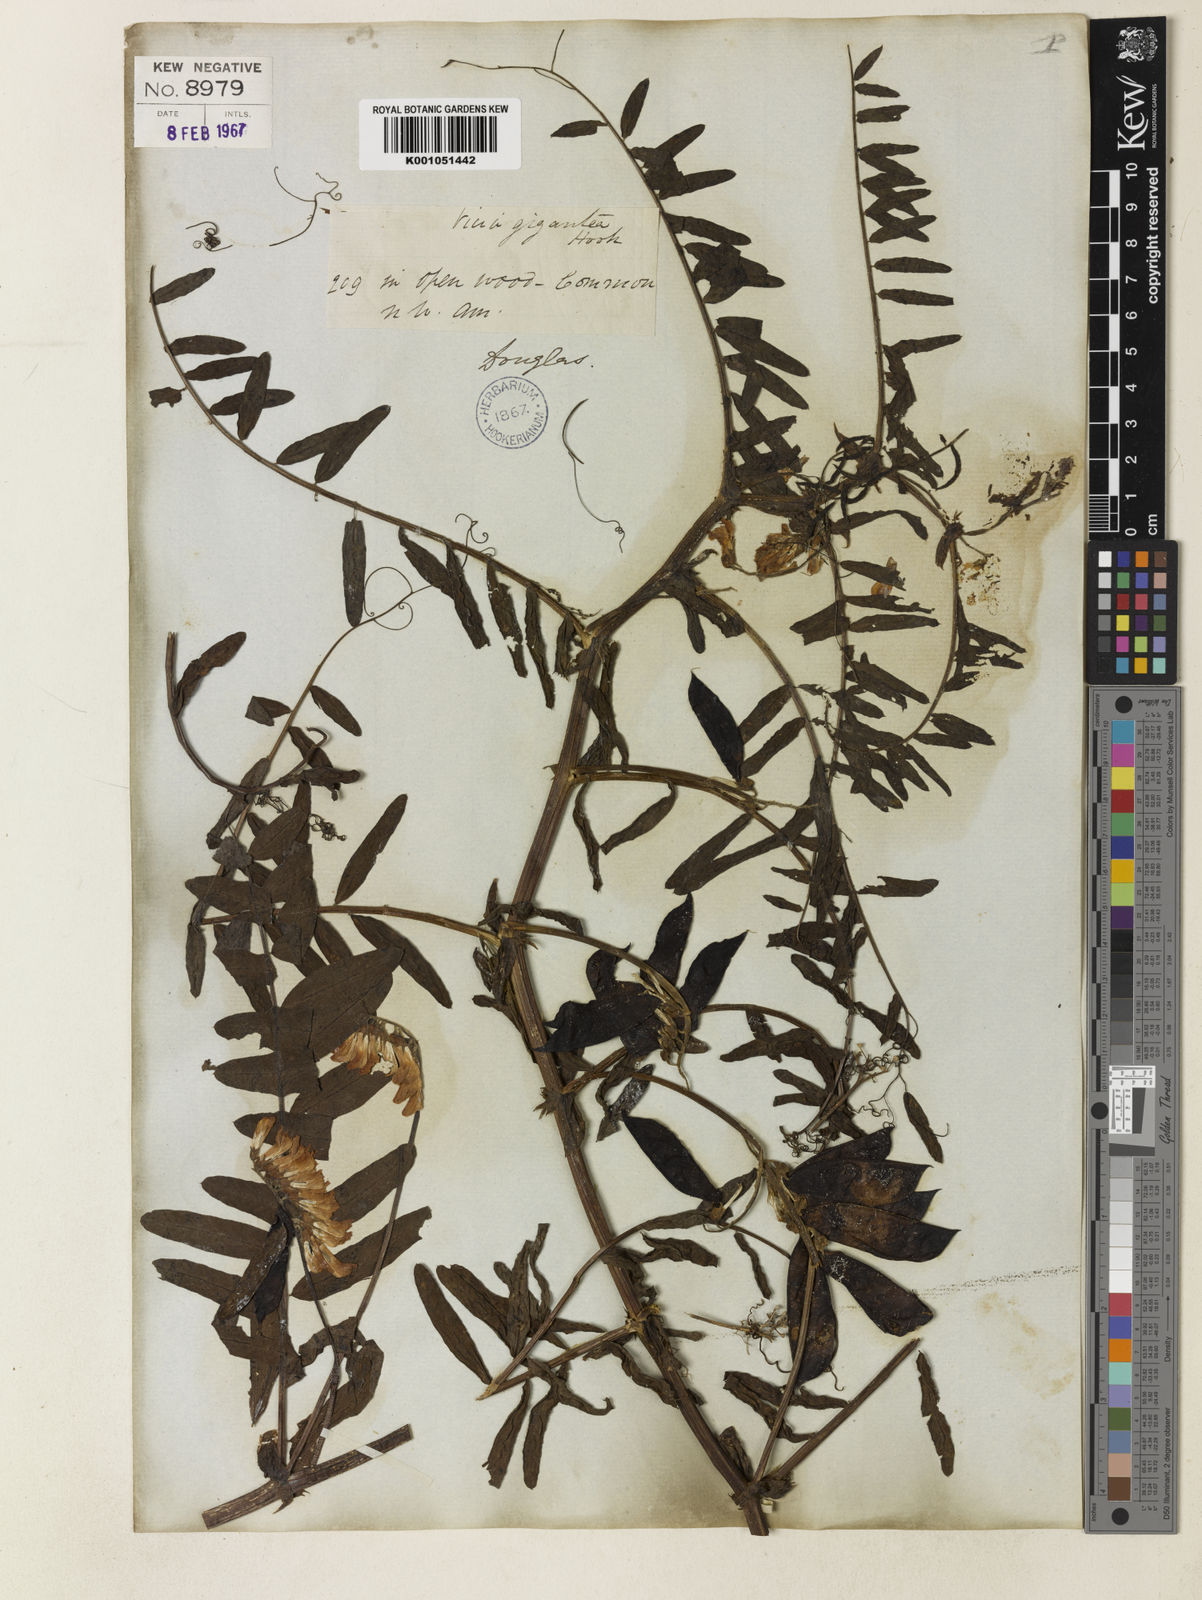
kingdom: Plantae
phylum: Tracheophyta
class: Magnoliopsida
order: Fabales
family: Fabaceae
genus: Vicia
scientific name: Vicia nigricans
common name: Black vetch
